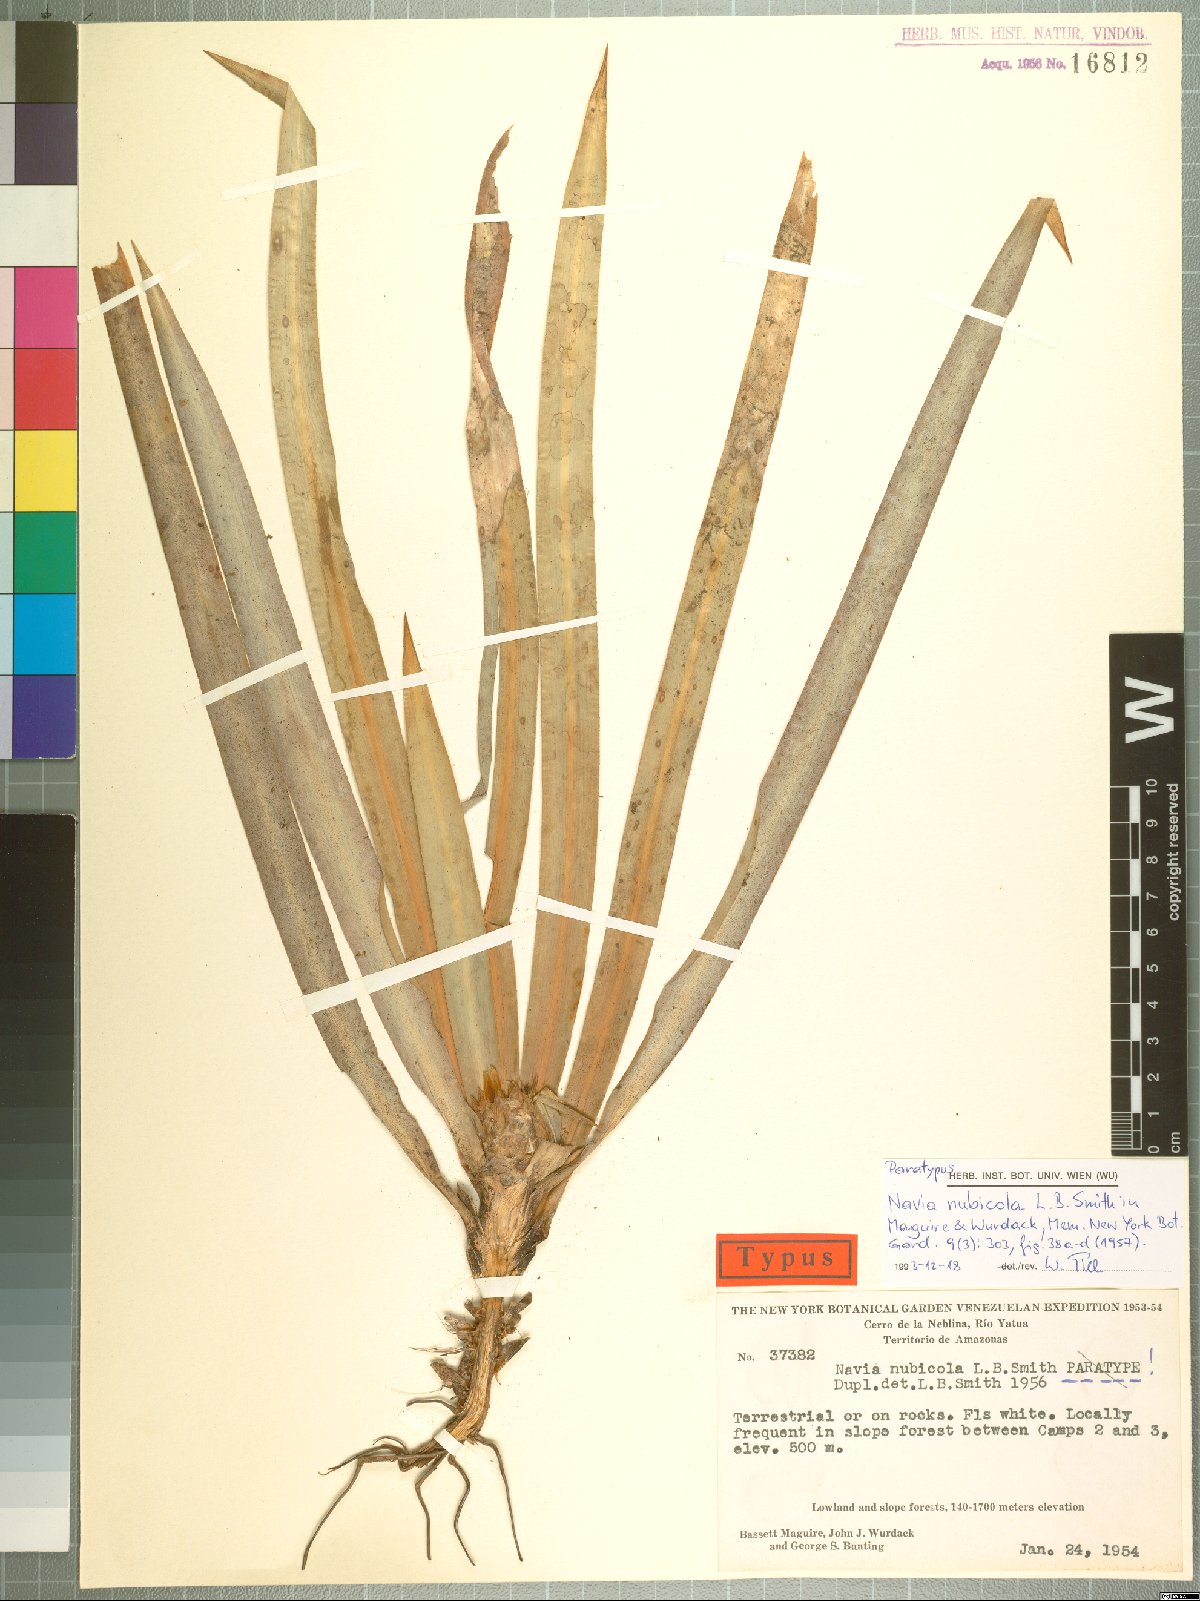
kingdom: Plantae
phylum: Tracheophyta
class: Liliopsida
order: Poales
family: Bromeliaceae
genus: Navia
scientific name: Navia nubicola
